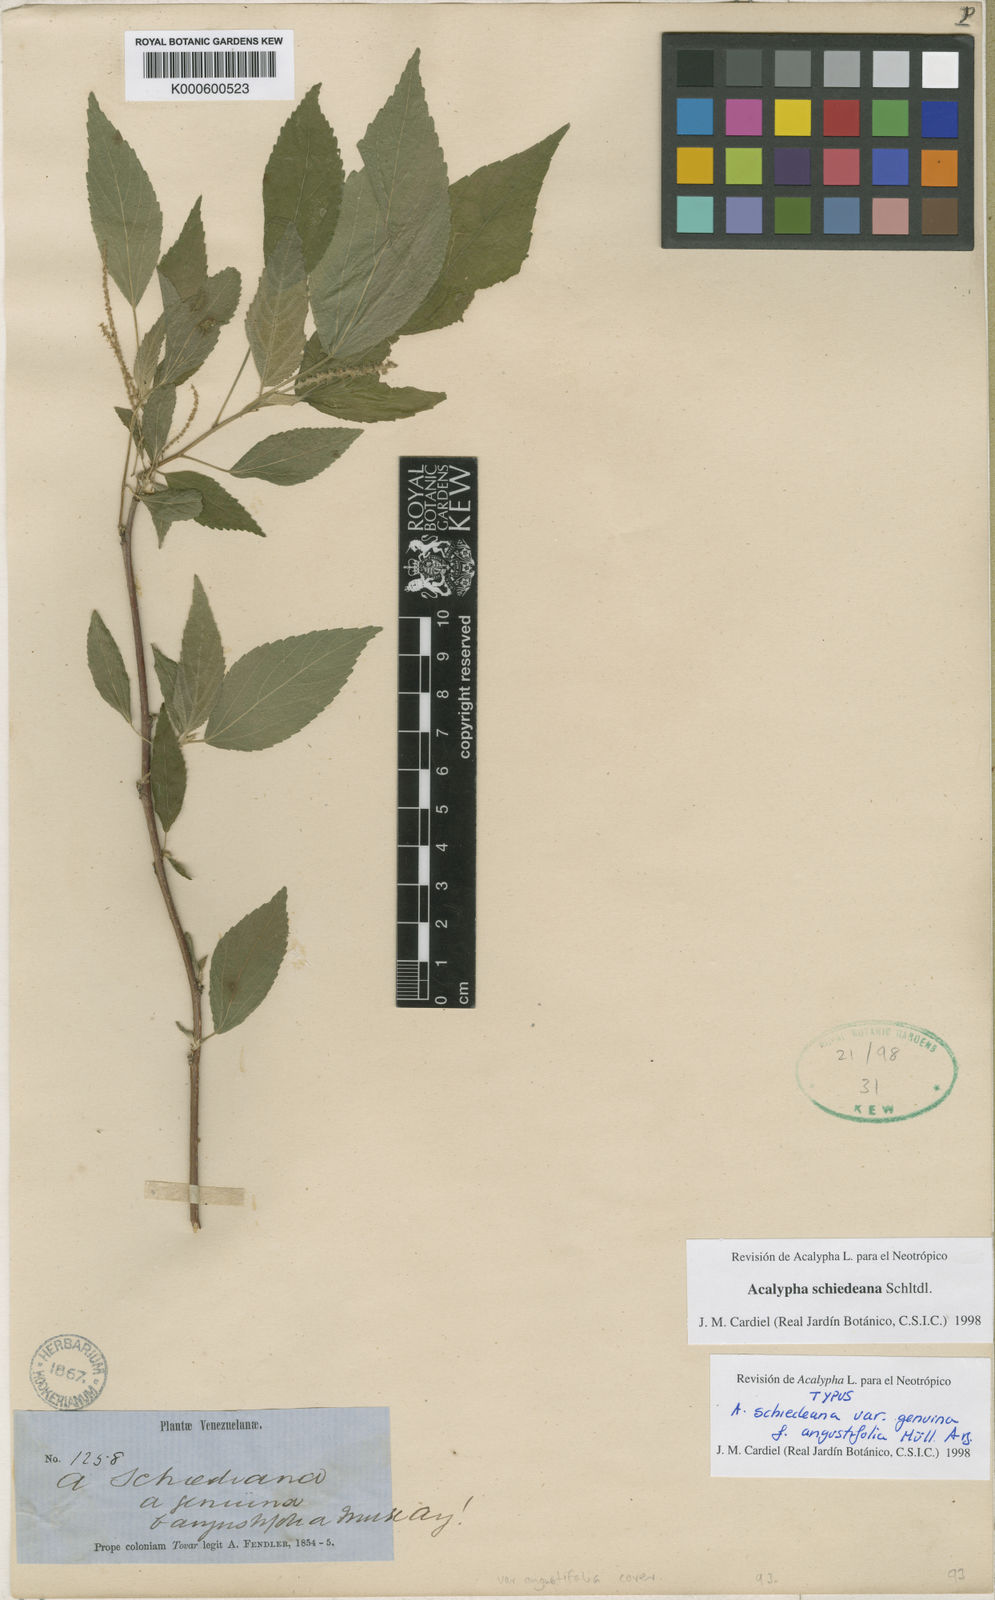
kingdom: Plantae
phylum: Tracheophyta
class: Magnoliopsida
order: Malpighiales
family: Euphorbiaceae
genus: Acalypha
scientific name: Acalypha schiedeana
